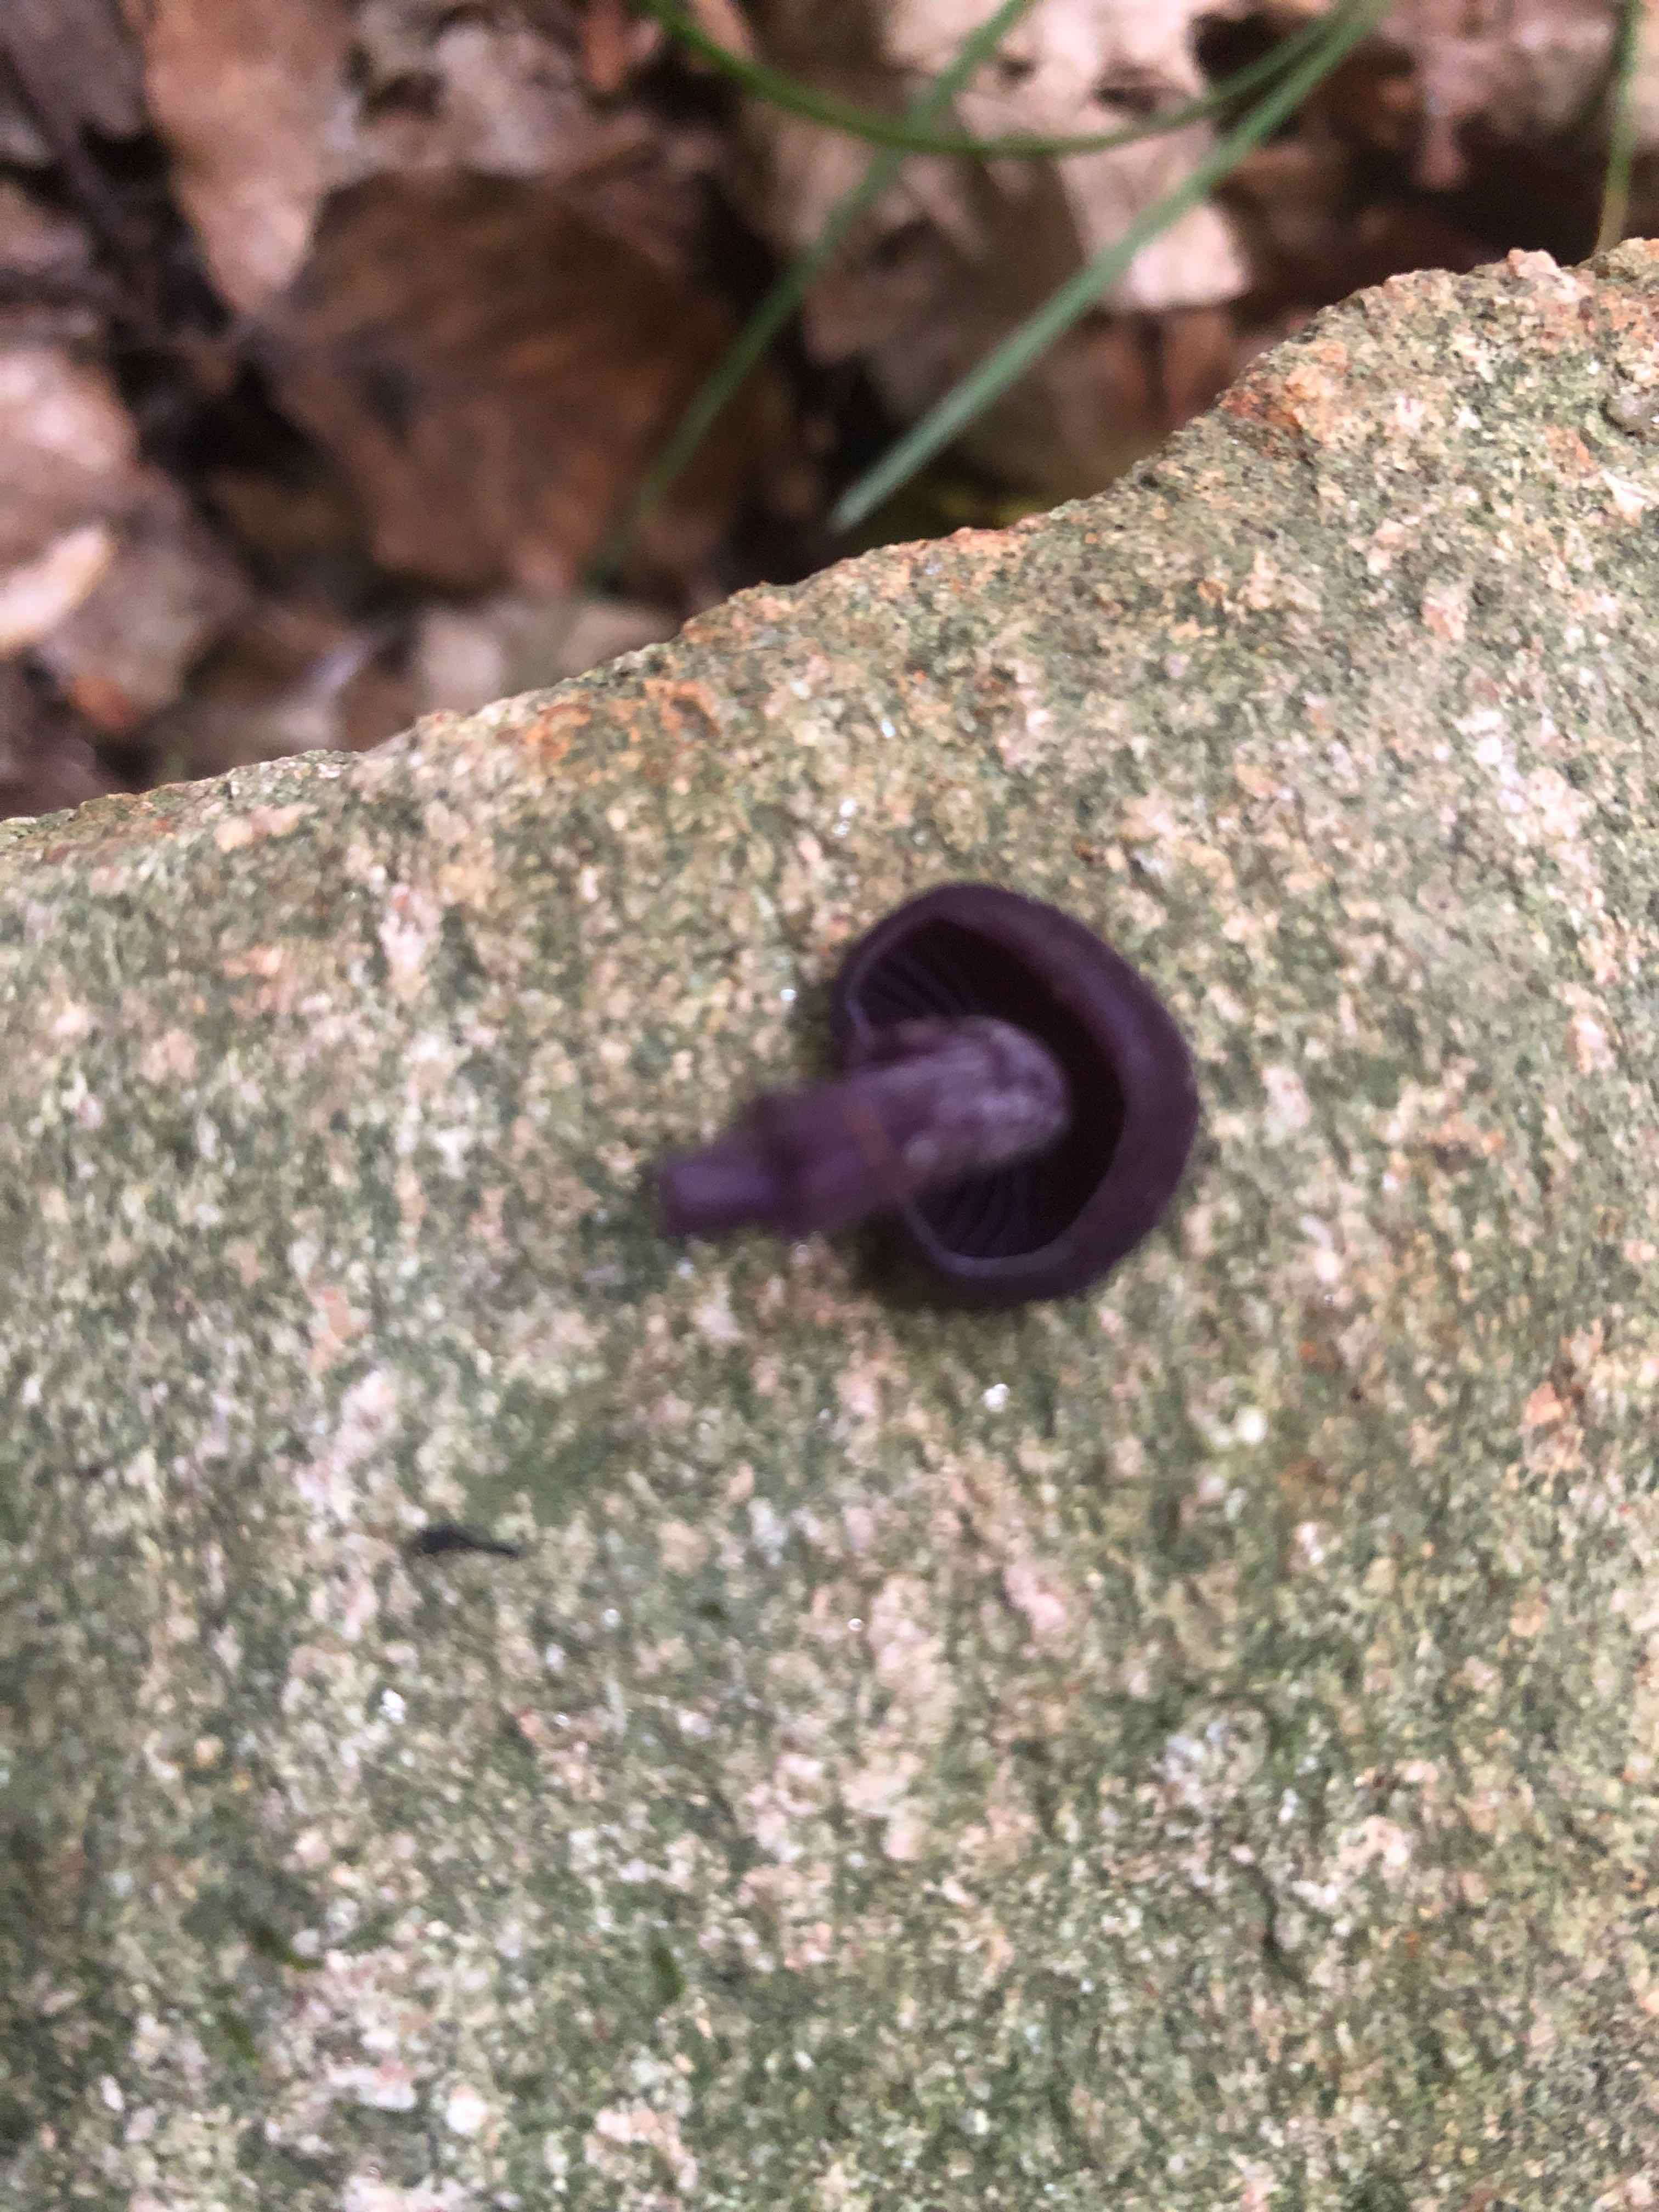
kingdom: Fungi
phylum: Basidiomycota
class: Agaricomycetes
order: Agaricales
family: Hydnangiaceae
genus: Laccaria
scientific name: Laccaria amethystina
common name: violet ametysthat
